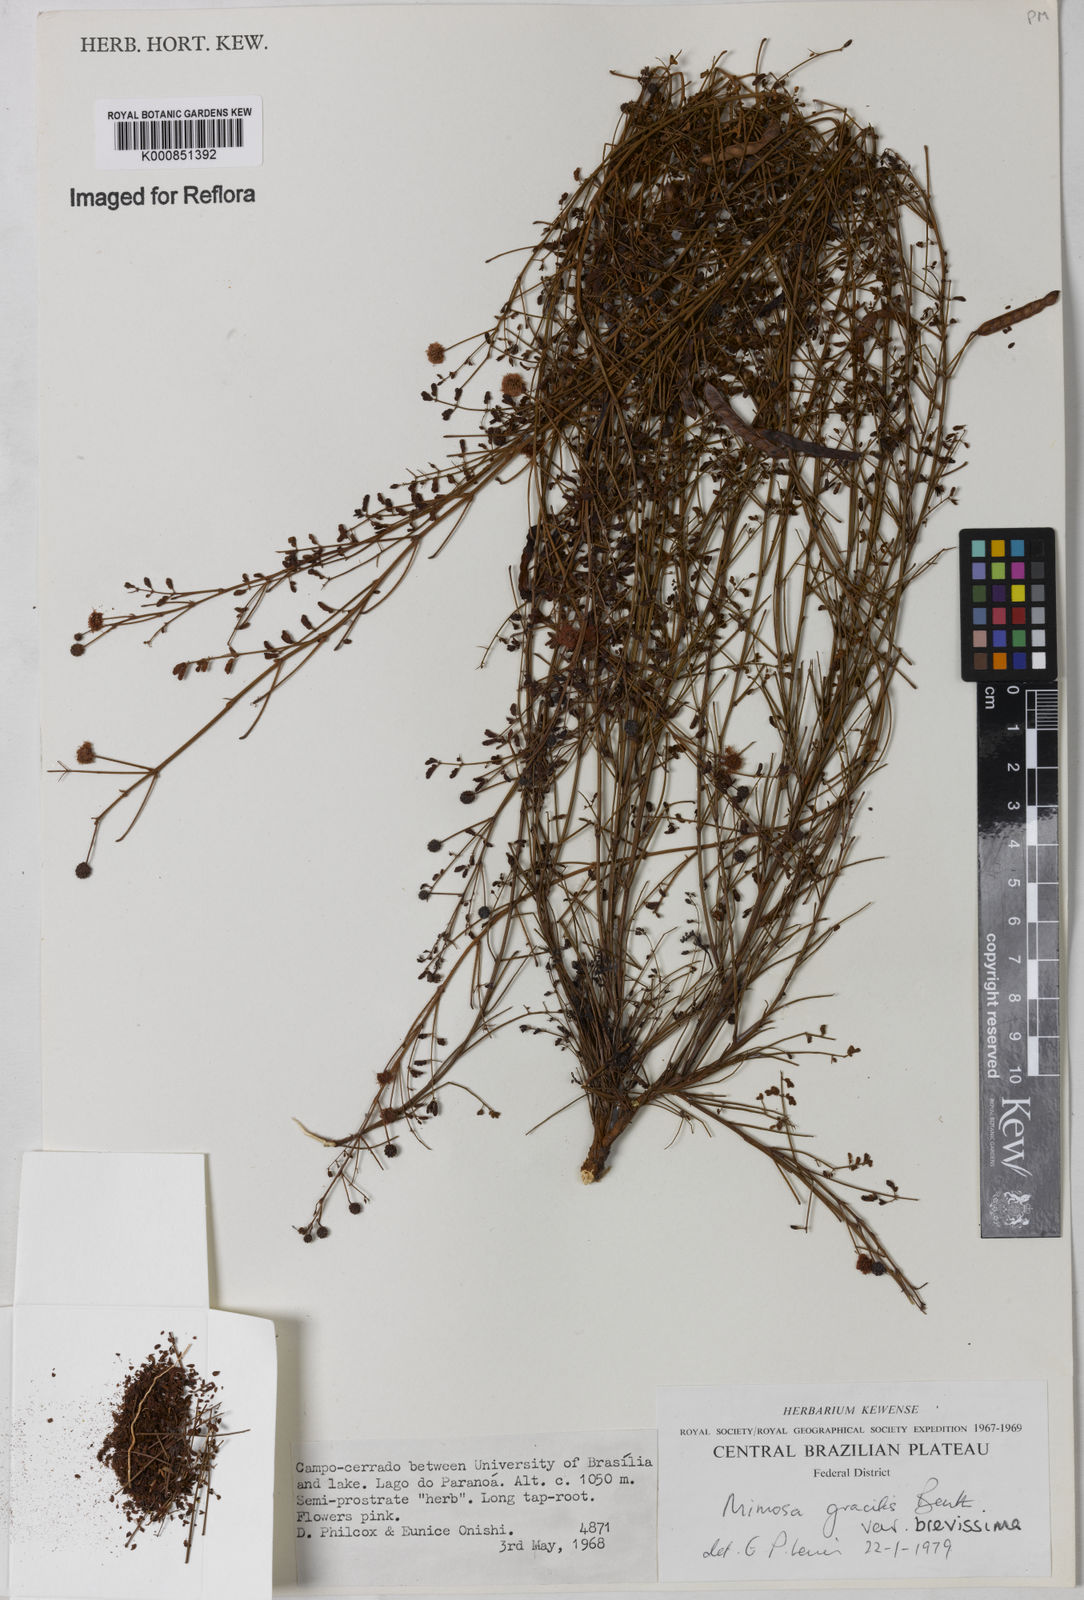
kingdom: Plantae
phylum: Tracheophyta
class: Magnoliopsida
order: Fabales
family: Fabaceae
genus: Mimosa
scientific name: Mimosa gracilis
